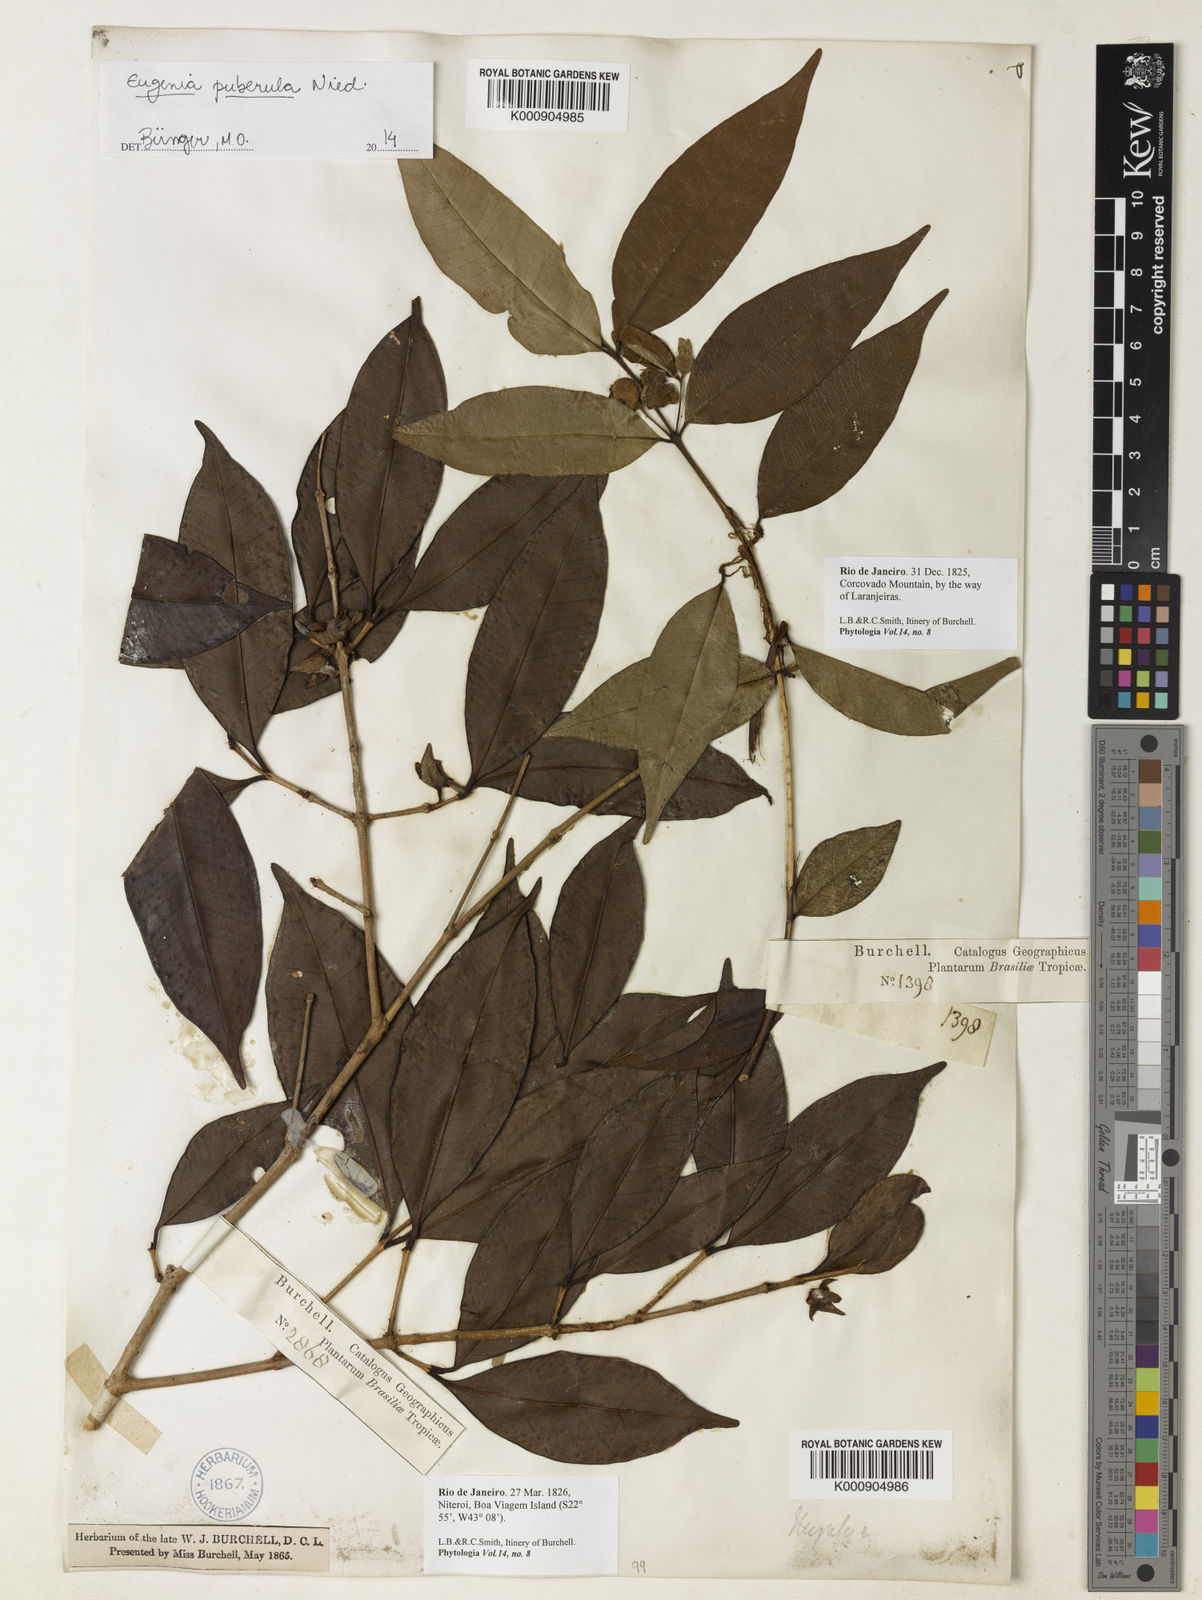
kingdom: Plantae
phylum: Tracheophyta
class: Magnoliopsida
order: Myrtales
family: Myrtaceae
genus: Eugenia
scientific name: Eugenia puberula
